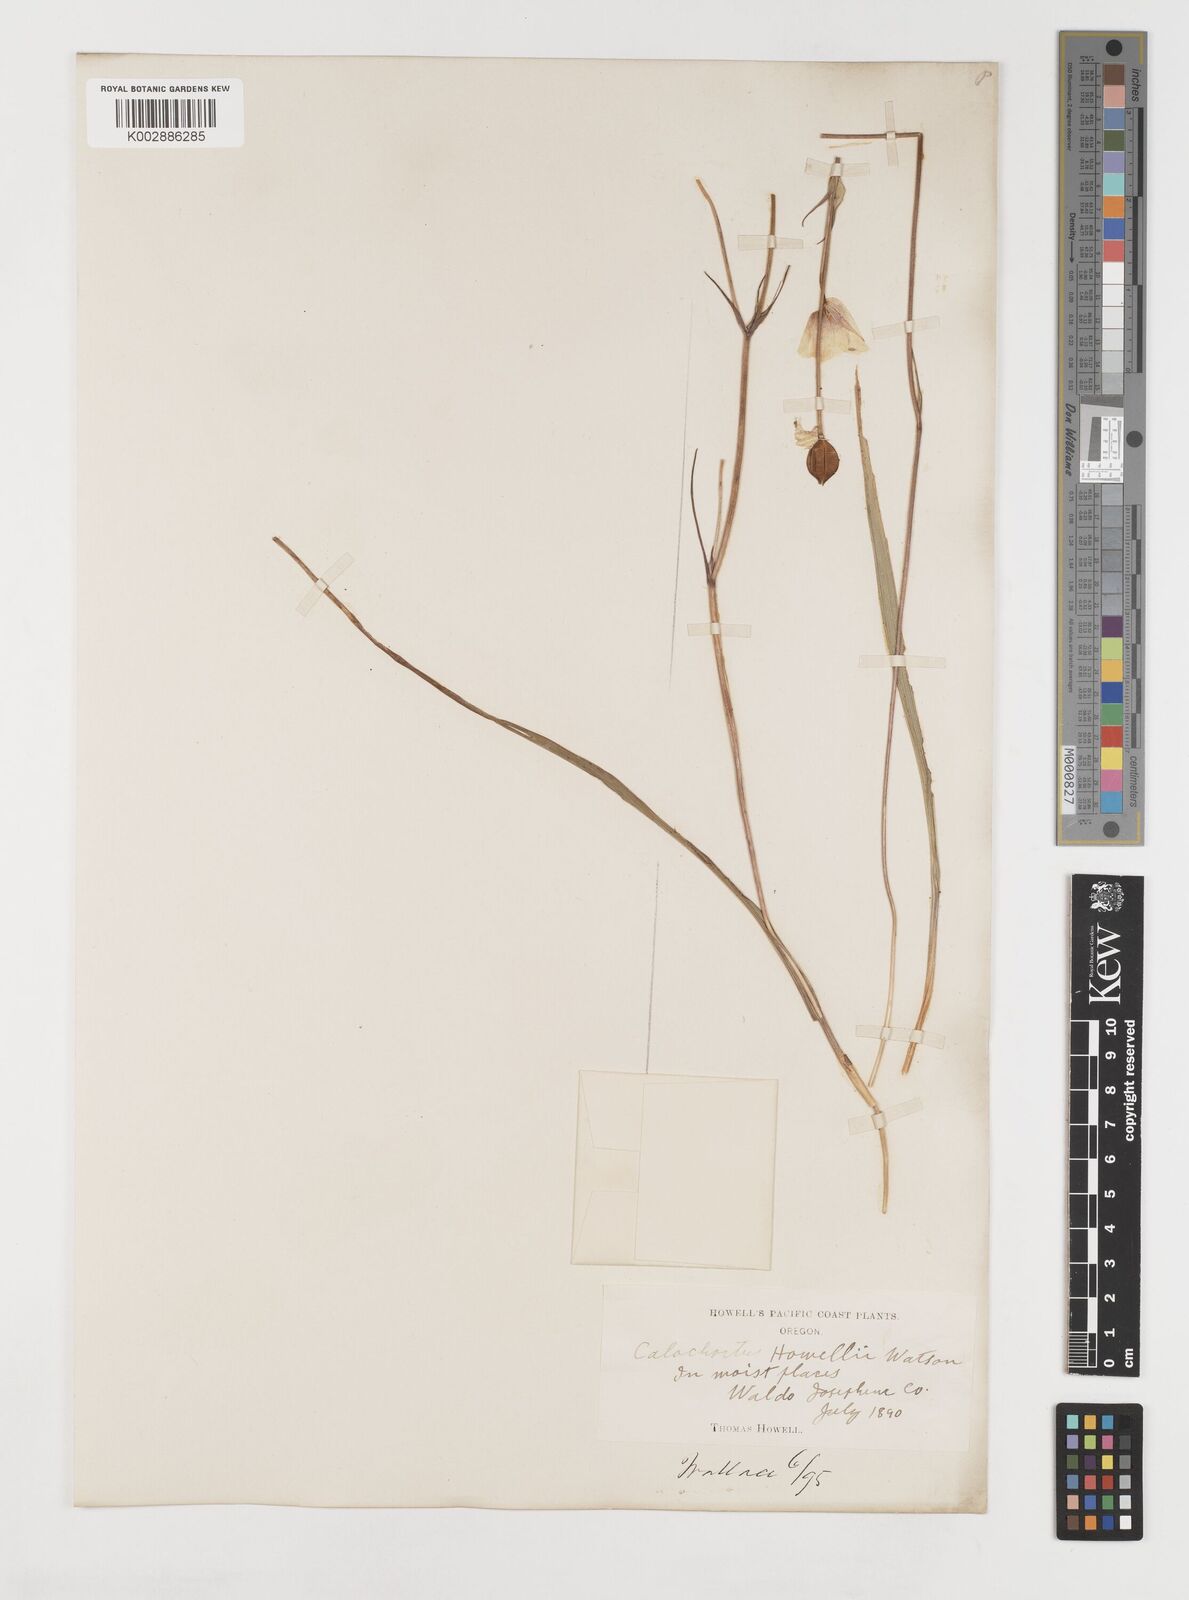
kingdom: Plantae
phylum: Tracheophyta
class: Liliopsida
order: Liliales
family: Liliaceae
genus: Calochortus
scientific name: Calochortus howellii
